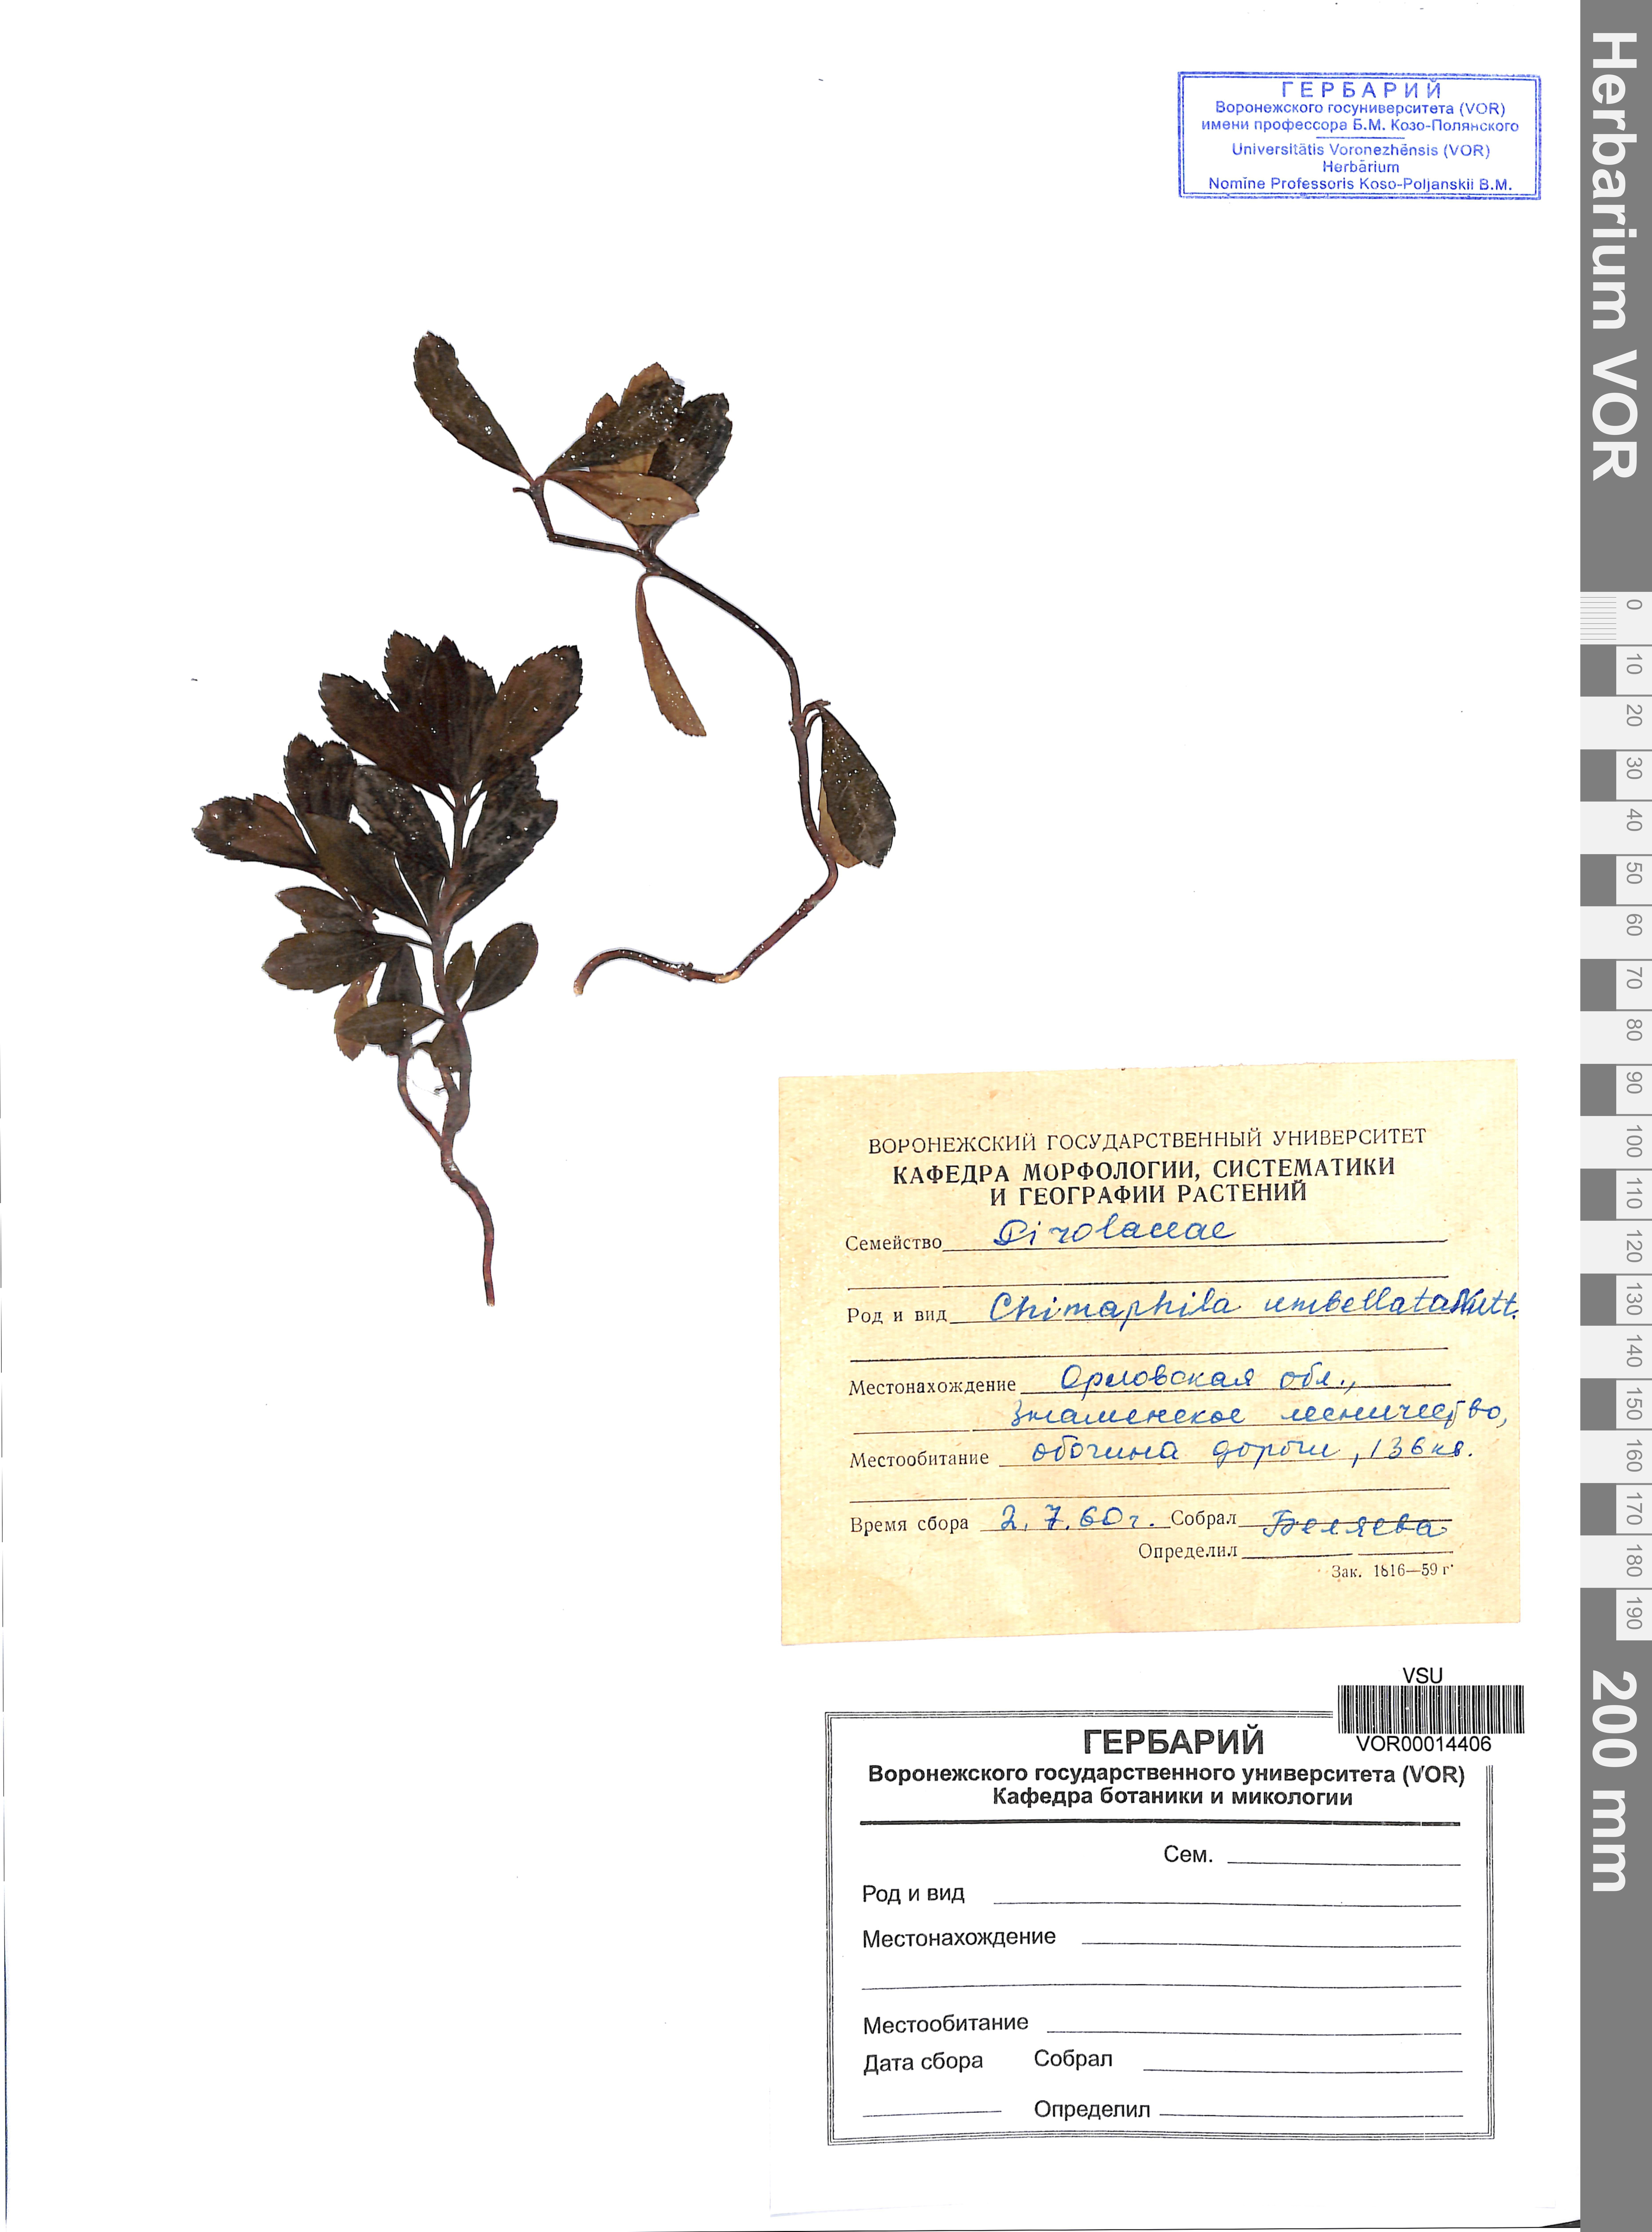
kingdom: Plantae
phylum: Tracheophyta
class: Magnoliopsida
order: Ericales
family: Ericaceae
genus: Chimaphila
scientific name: Chimaphila umbellata
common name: Pipsissewa
